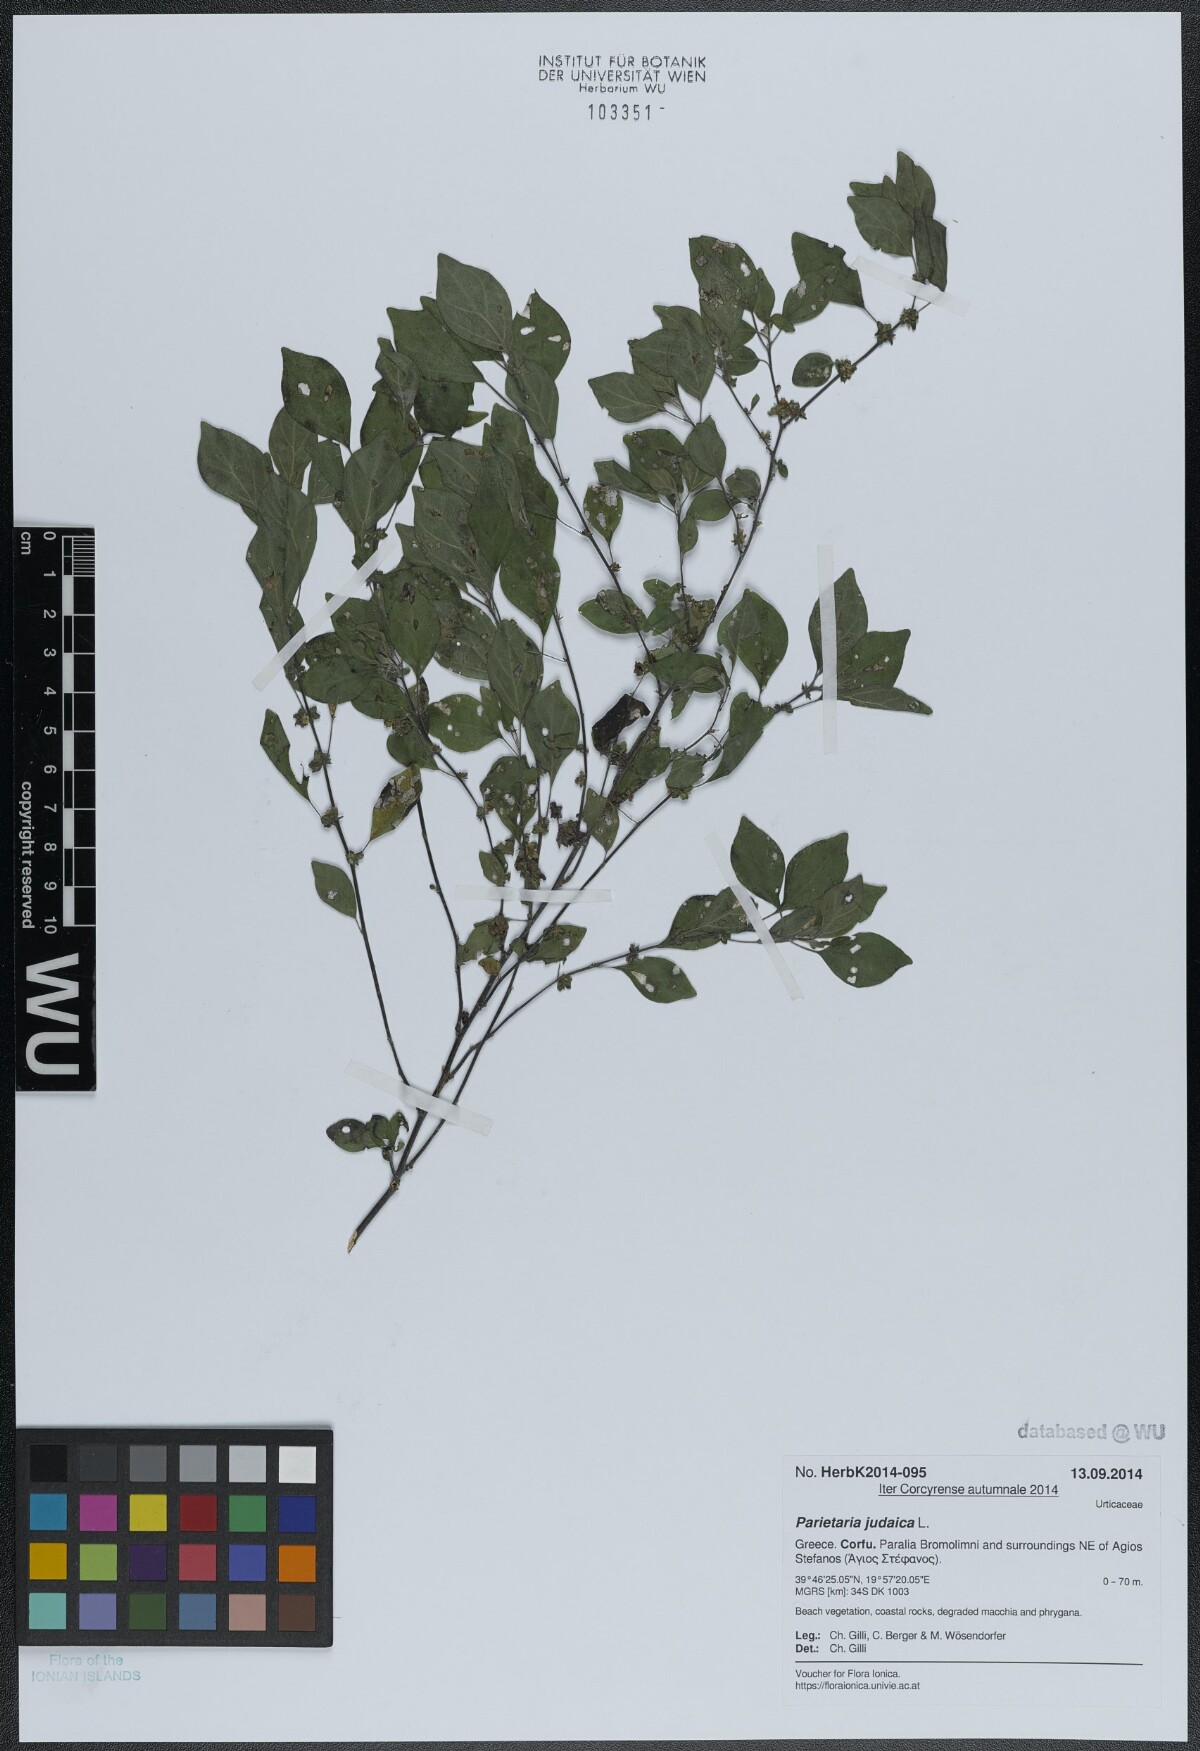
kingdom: Plantae
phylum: Tracheophyta
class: Magnoliopsida
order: Rosales
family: Urticaceae
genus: Parietaria
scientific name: Parietaria judaica
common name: Pellitory-of-the-wall
